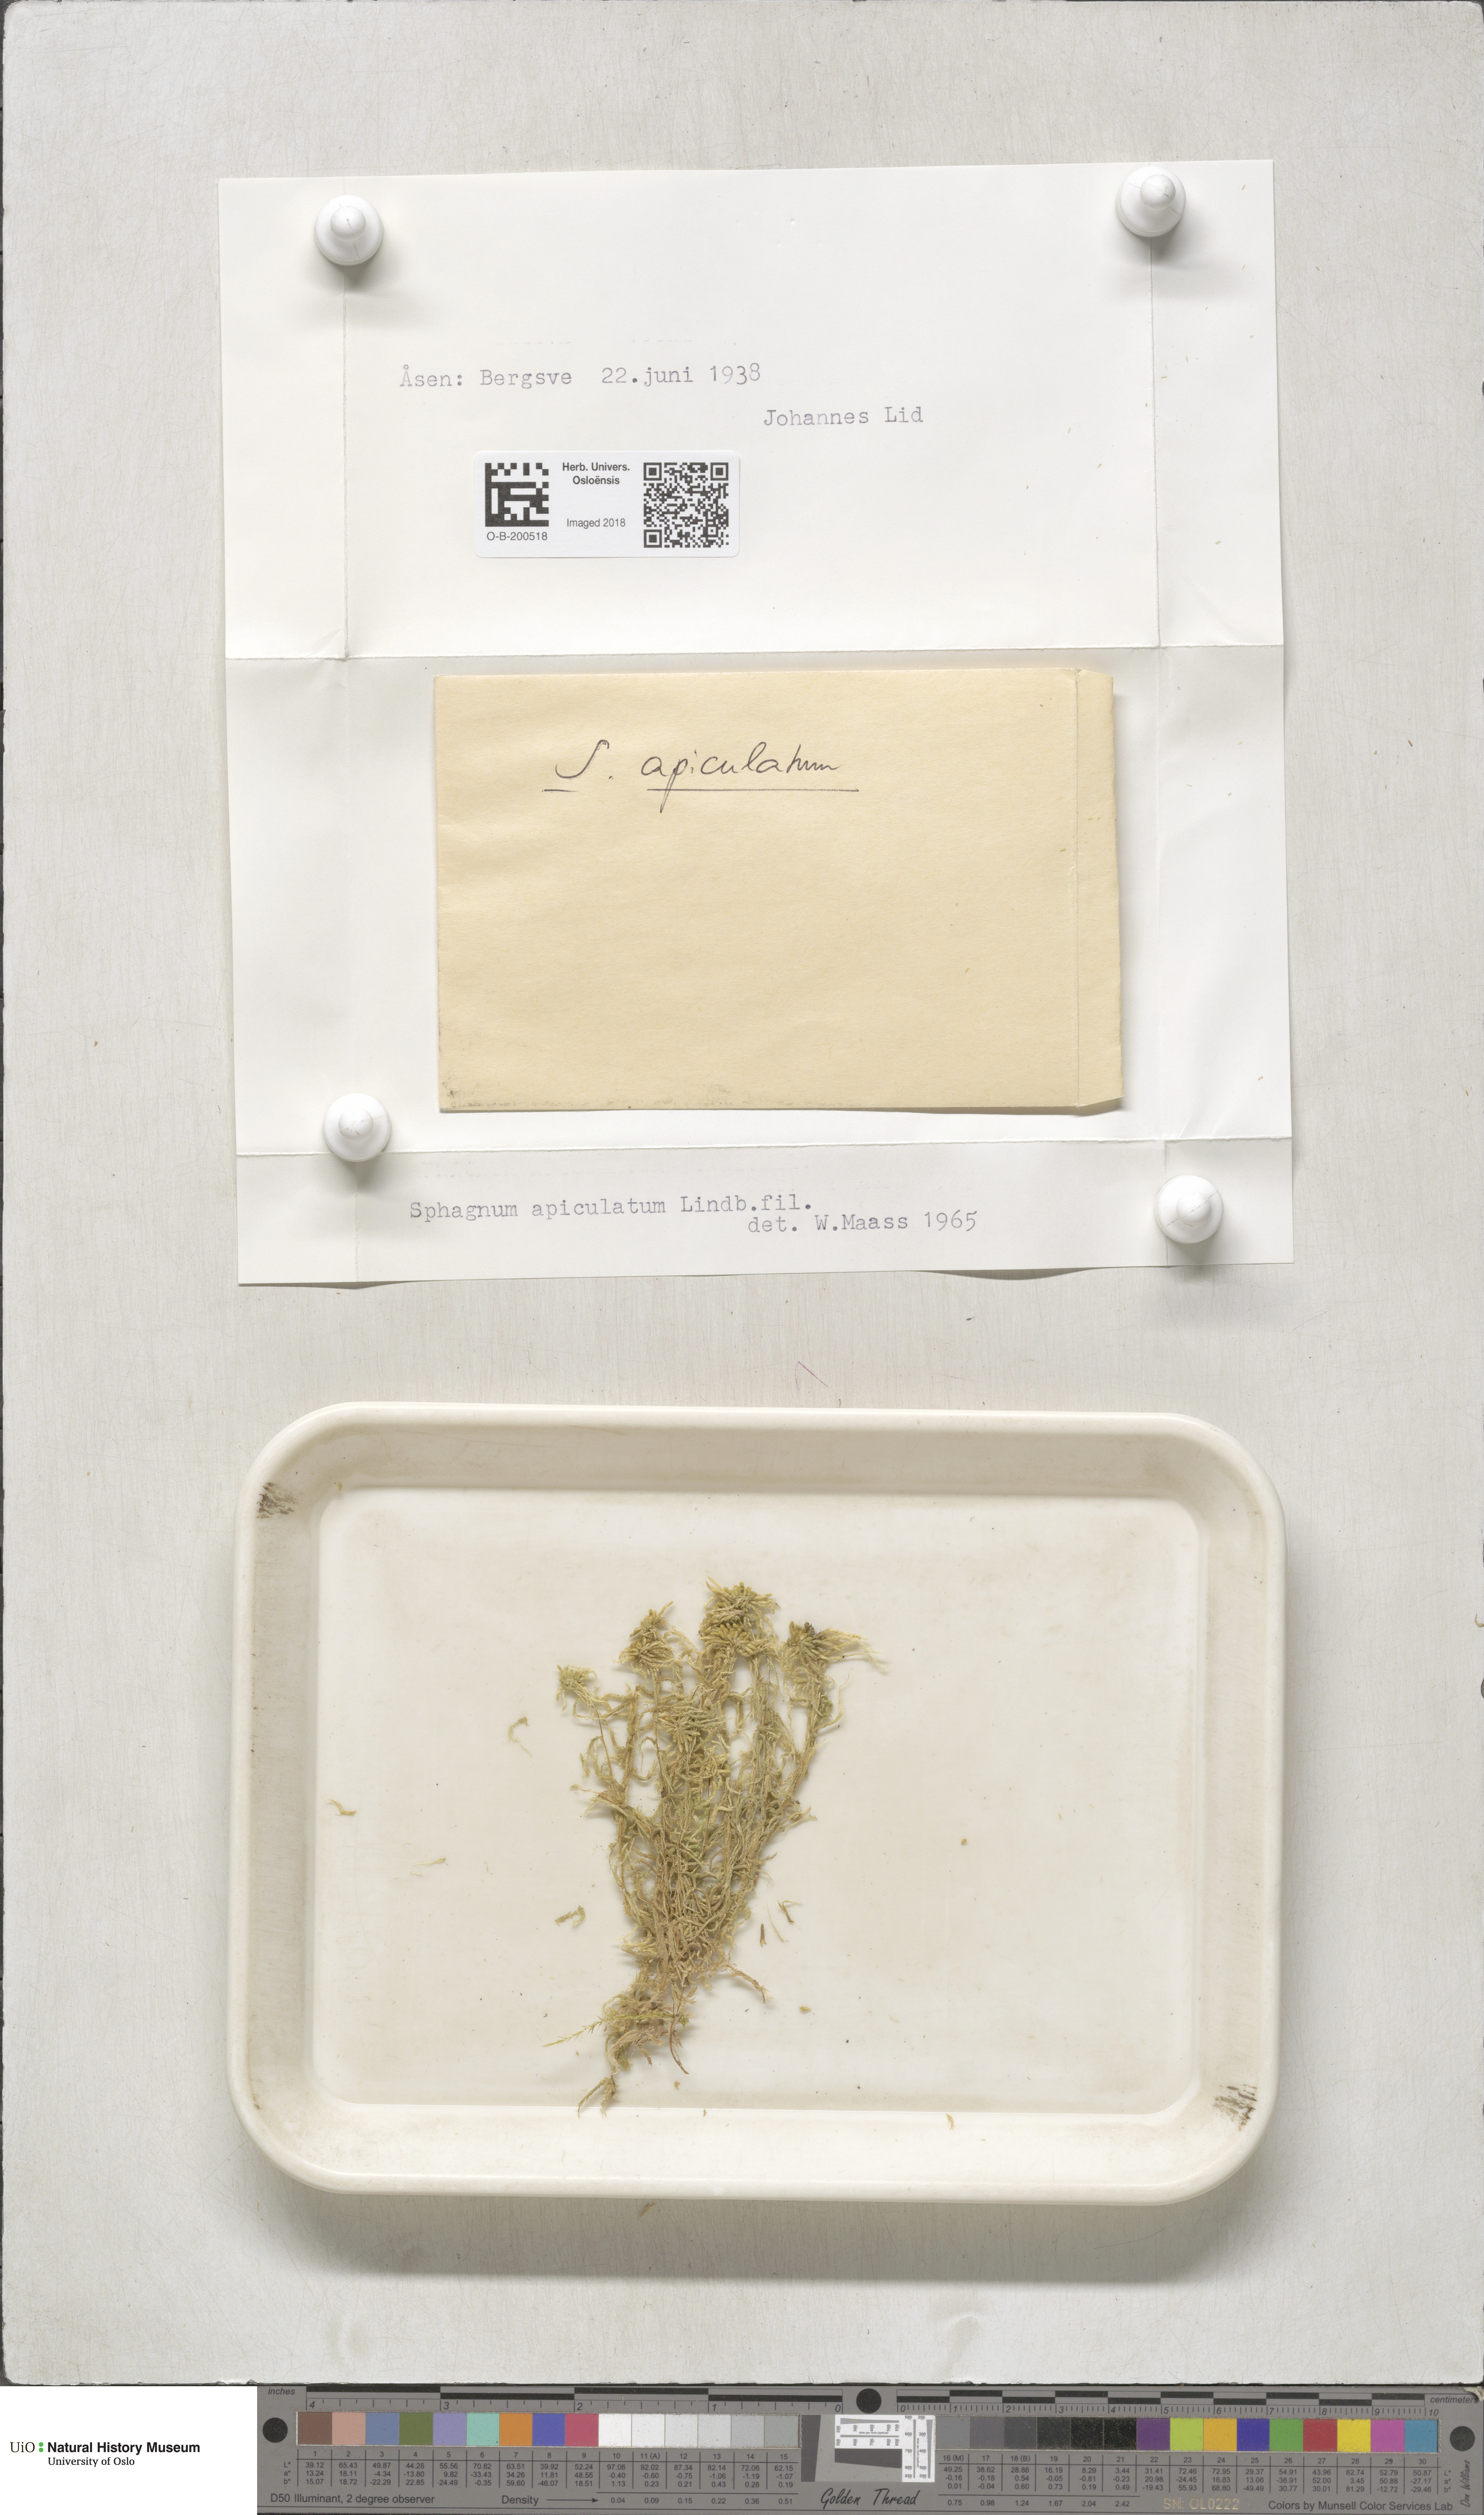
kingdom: Plantae
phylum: Bryophyta
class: Sphagnopsida
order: Sphagnales
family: Sphagnaceae
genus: Sphagnum
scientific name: Sphagnum fallax
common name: Flat-top peat moss
